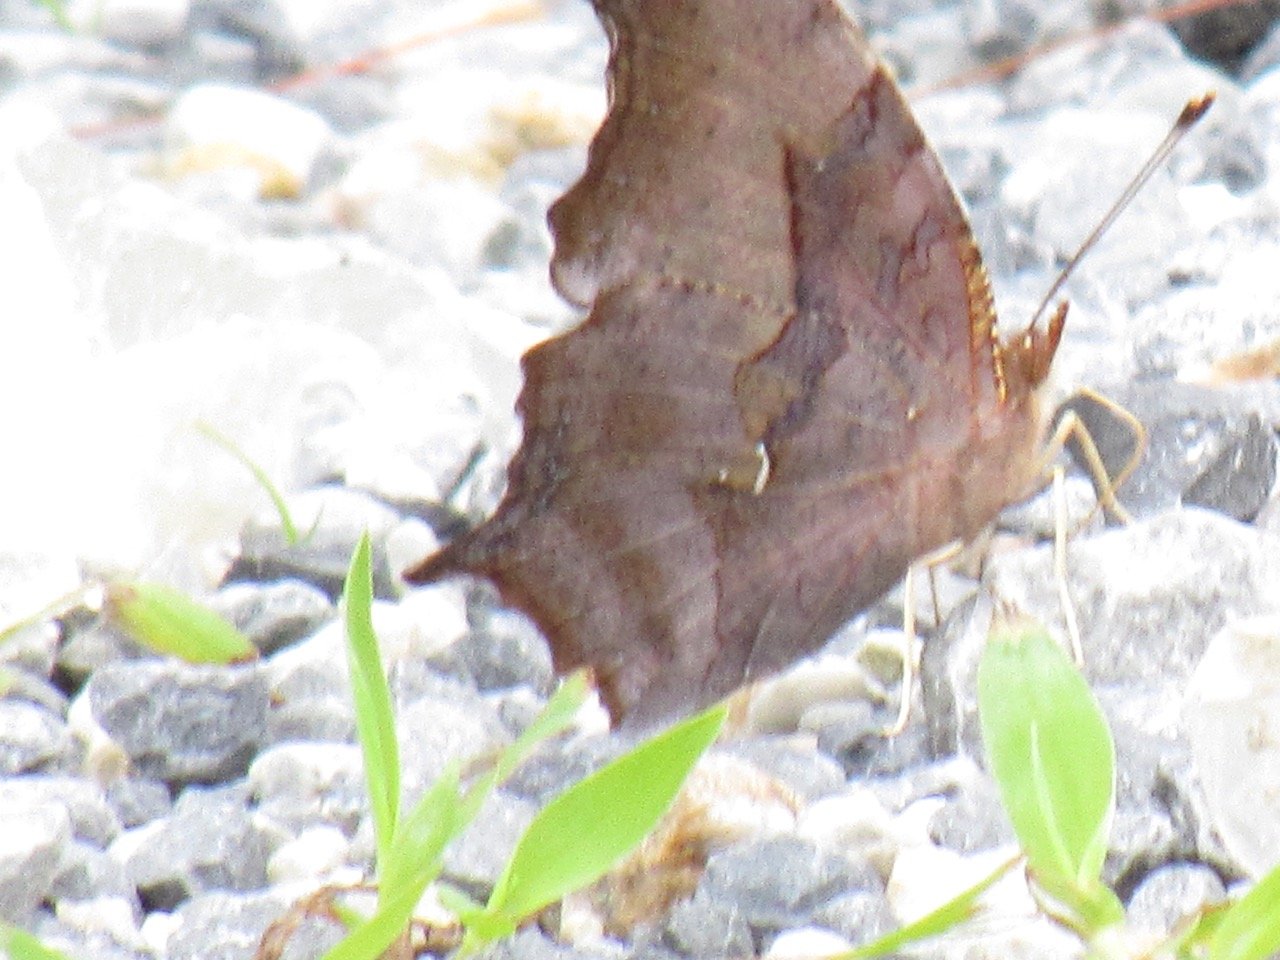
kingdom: Animalia
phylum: Arthropoda
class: Insecta
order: Lepidoptera
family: Nymphalidae
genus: Polygonia
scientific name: Polygonia interrogationis
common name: Question Mark
